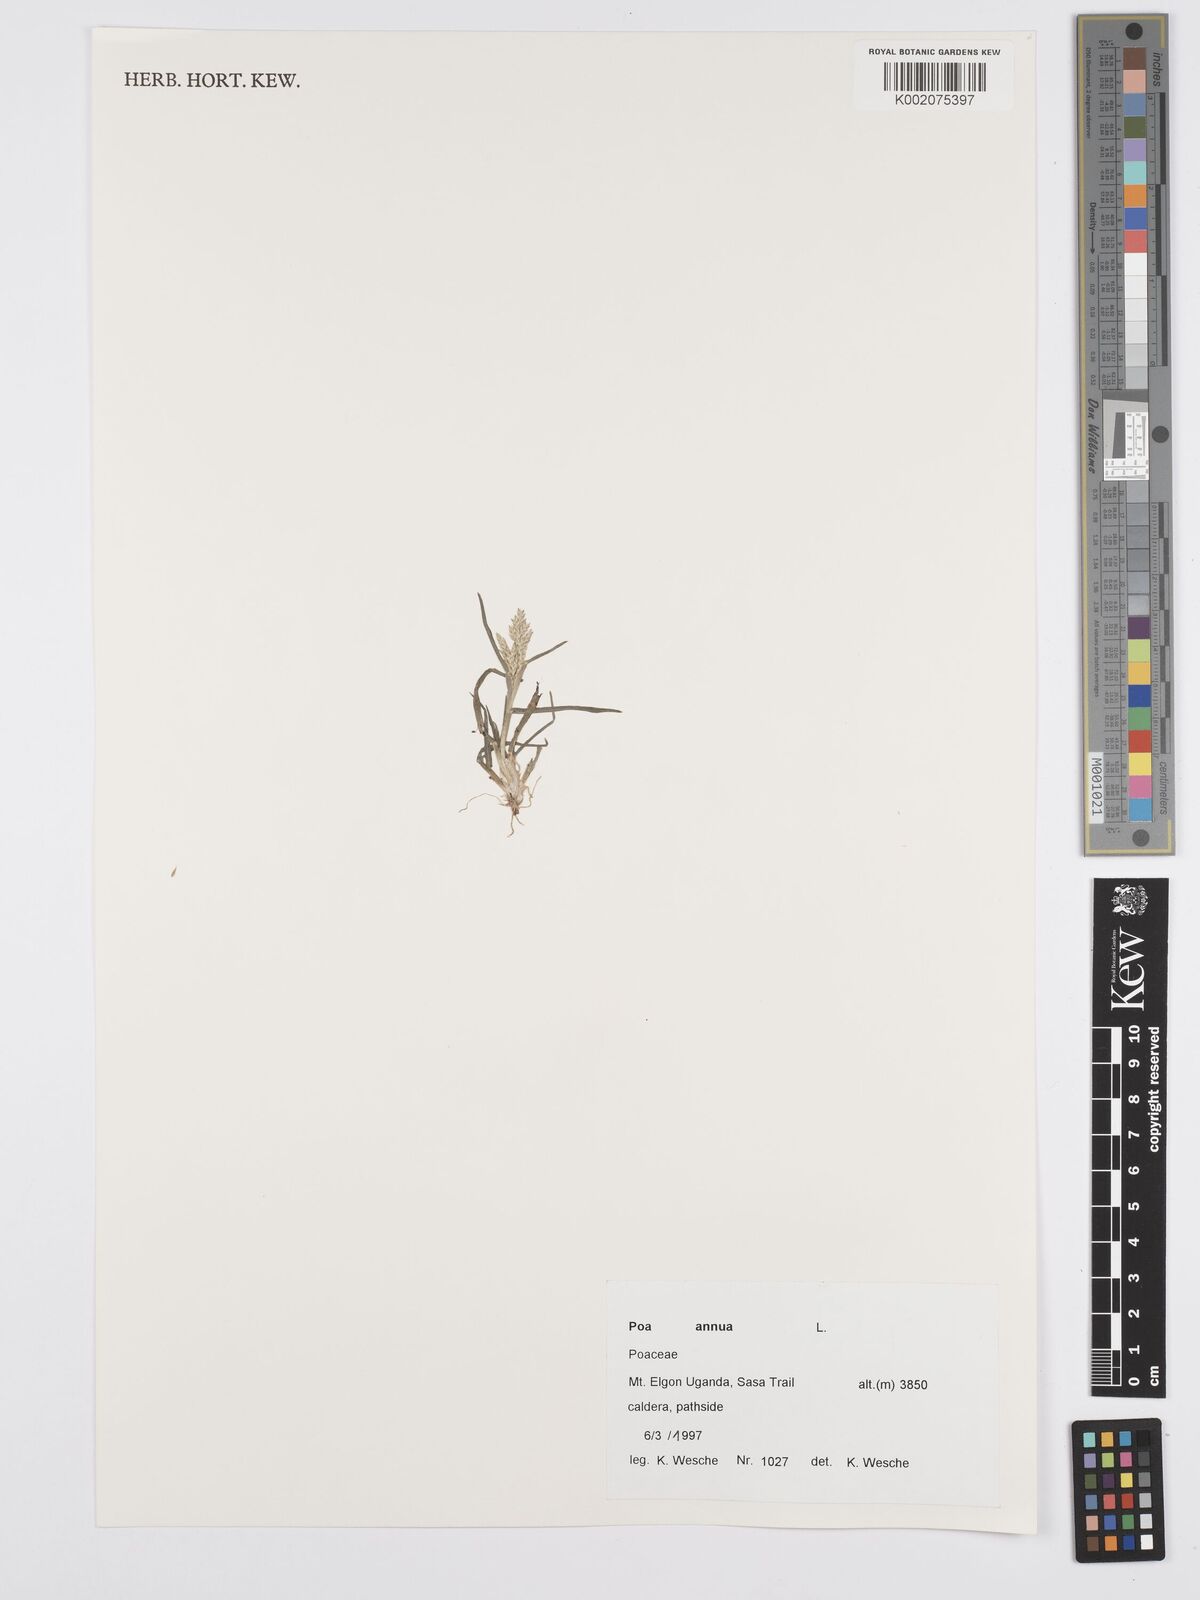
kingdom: Plantae
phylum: Tracheophyta
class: Liliopsida
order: Poales
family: Poaceae
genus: Poa
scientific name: Poa annua
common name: Annual bluegrass
